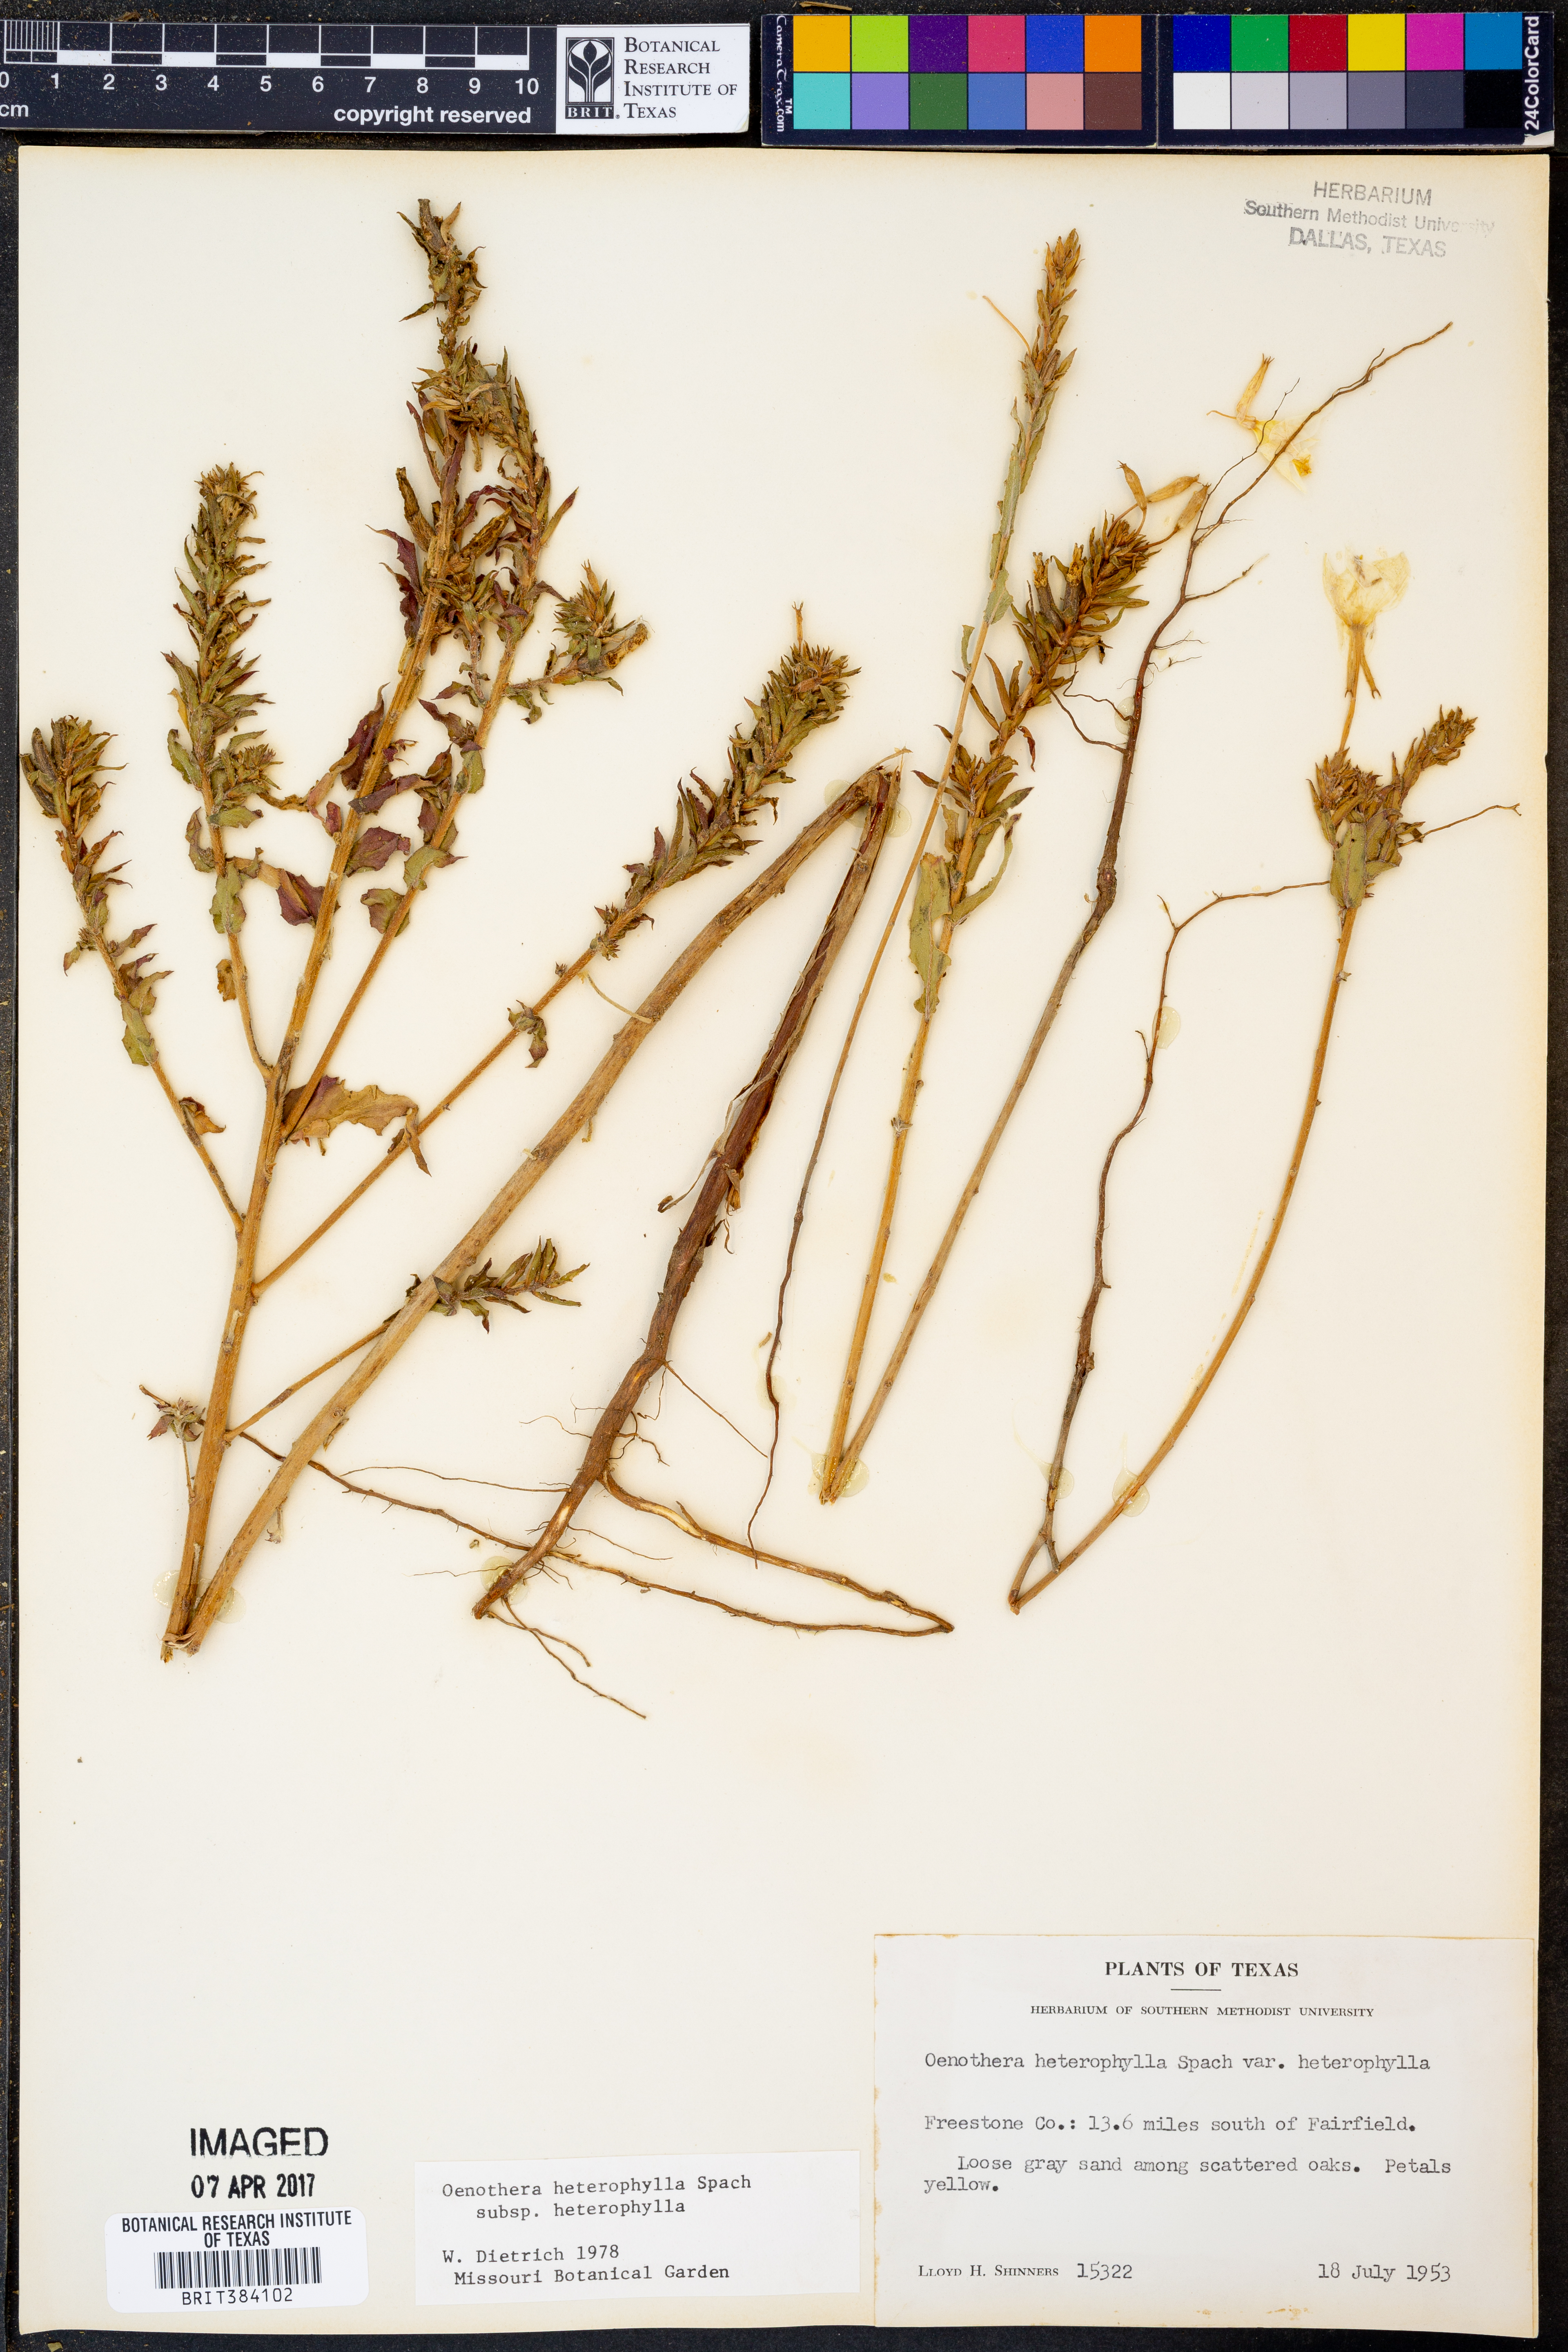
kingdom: Plantae
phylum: Tracheophyta
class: Magnoliopsida
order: Myrtales
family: Onagraceae
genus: Oenothera
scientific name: Oenothera heterophylla
